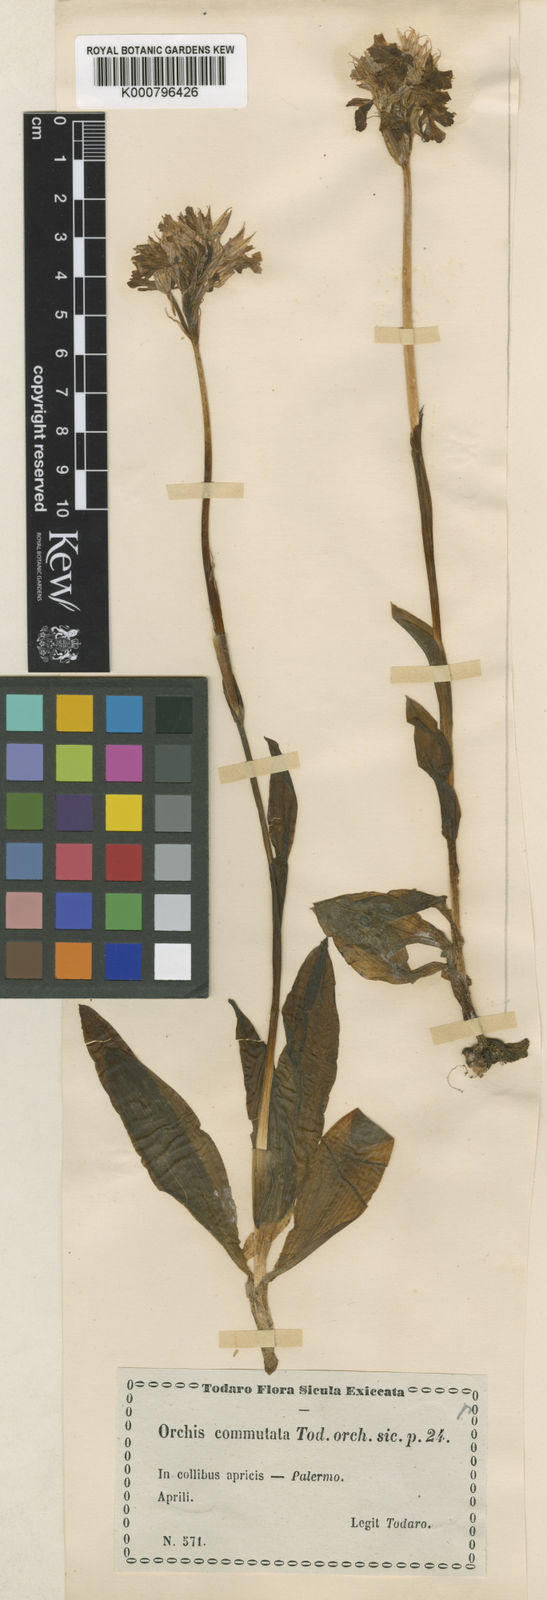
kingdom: Plantae
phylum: Tracheophyta
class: Liliopsida
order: Asparagales
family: Orchidaceae
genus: Platanthera
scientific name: Platanthera clavellata
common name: Club-spur orchid
